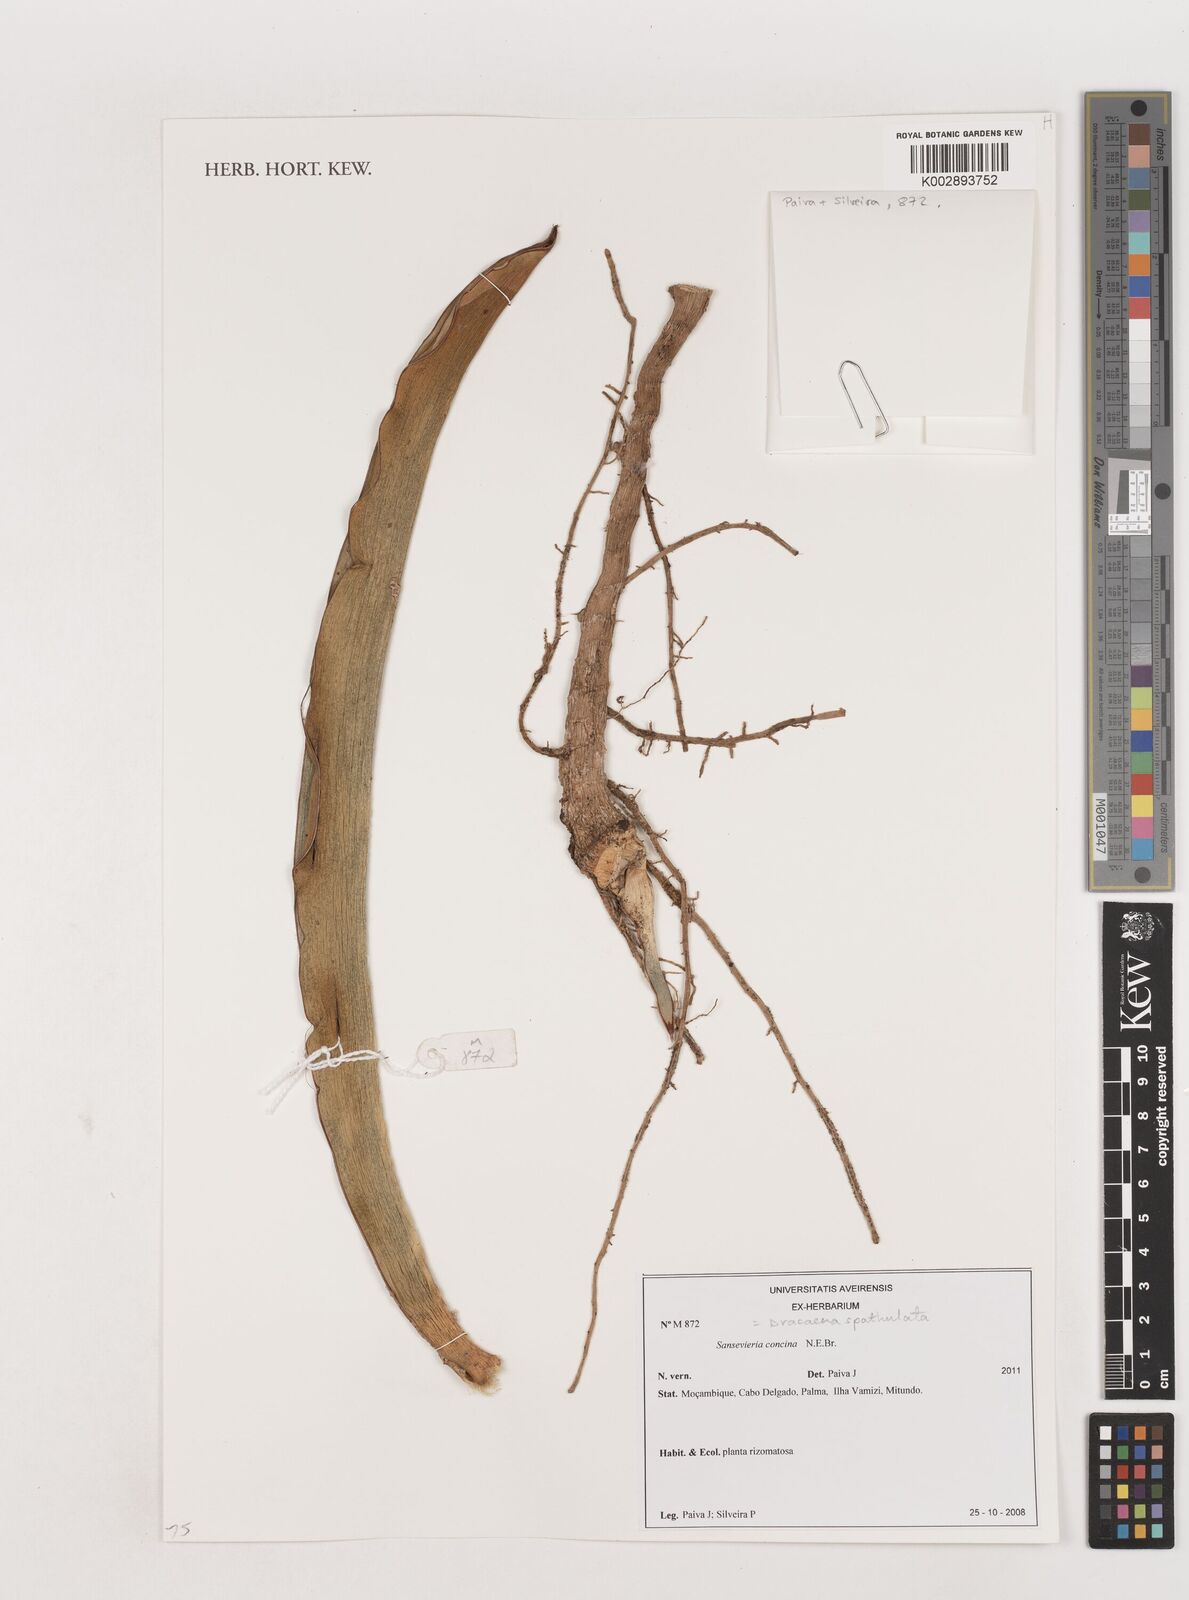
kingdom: Plantae
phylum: Tracheophyta
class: Liliopsida
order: Asparagales
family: Asparagaceae
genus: Dracaena
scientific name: Dracaena spathulata
